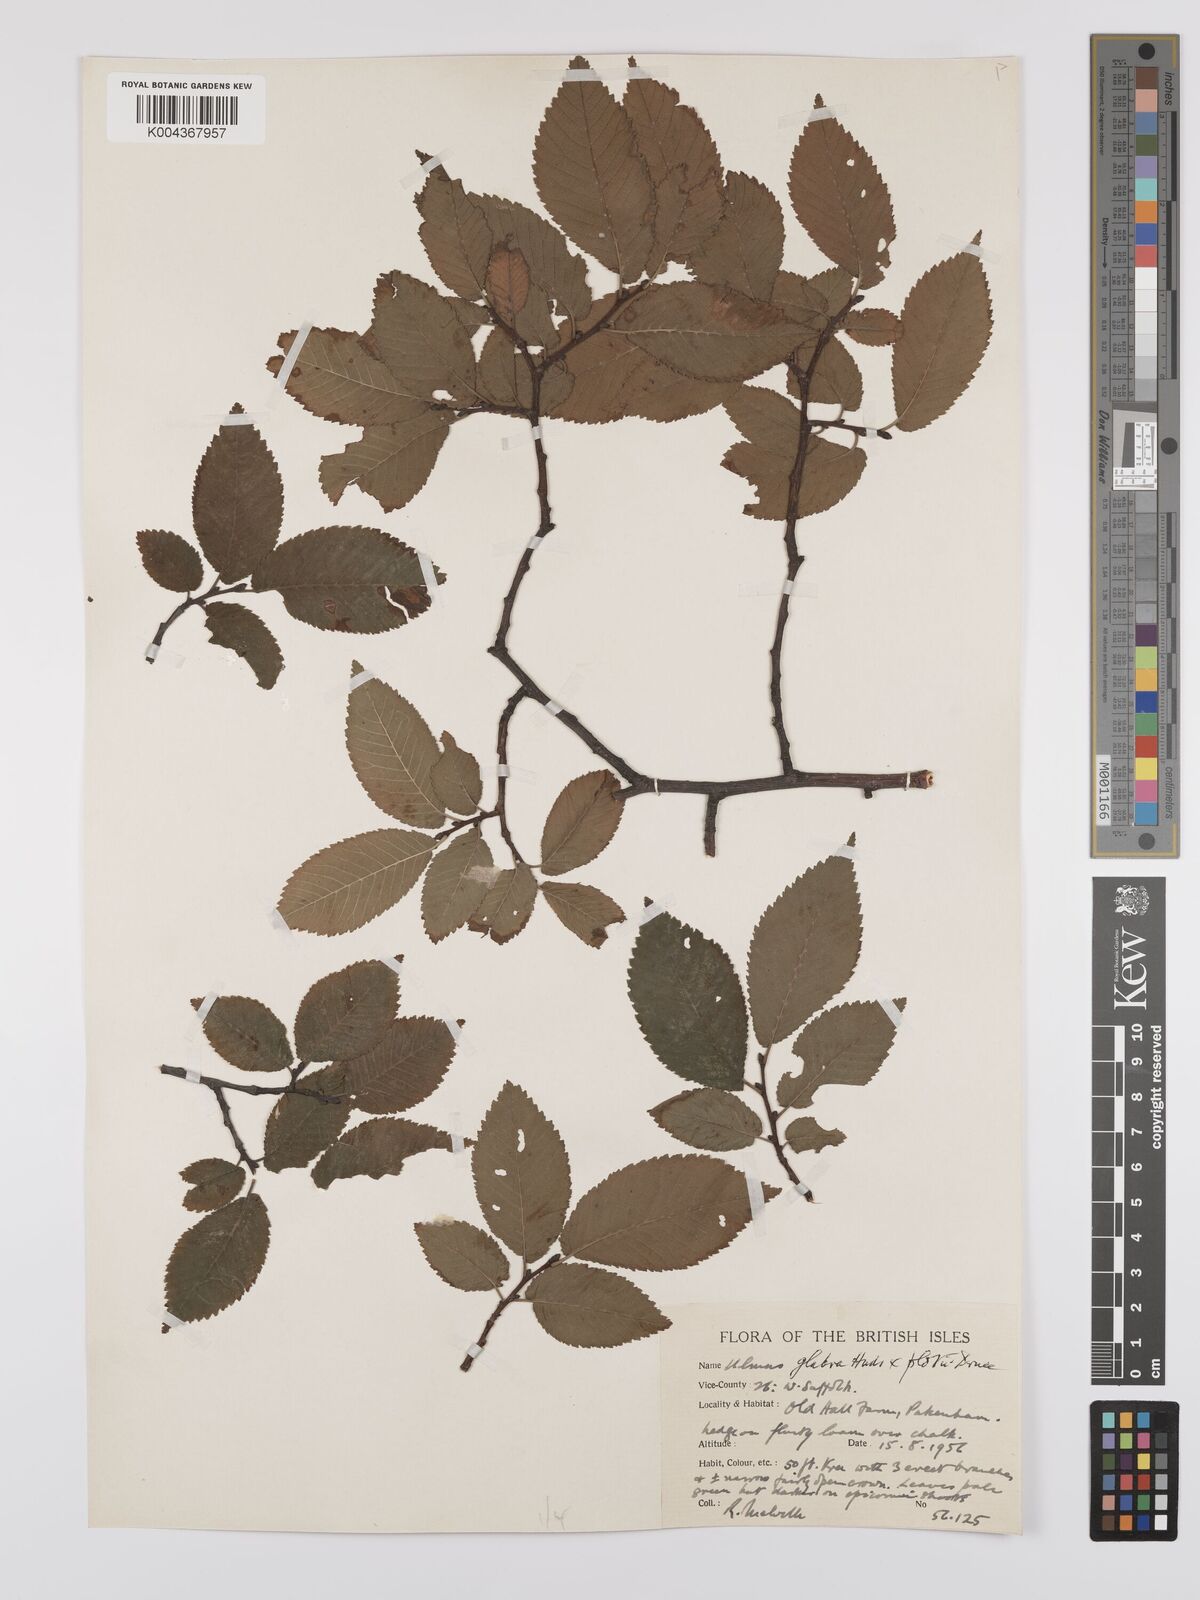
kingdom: Plantae
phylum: Tracheophyta
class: Magnoliopsida
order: Rosales
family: Ulmaceae
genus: Ulmus
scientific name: Ulmus glabra
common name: Wych elm
